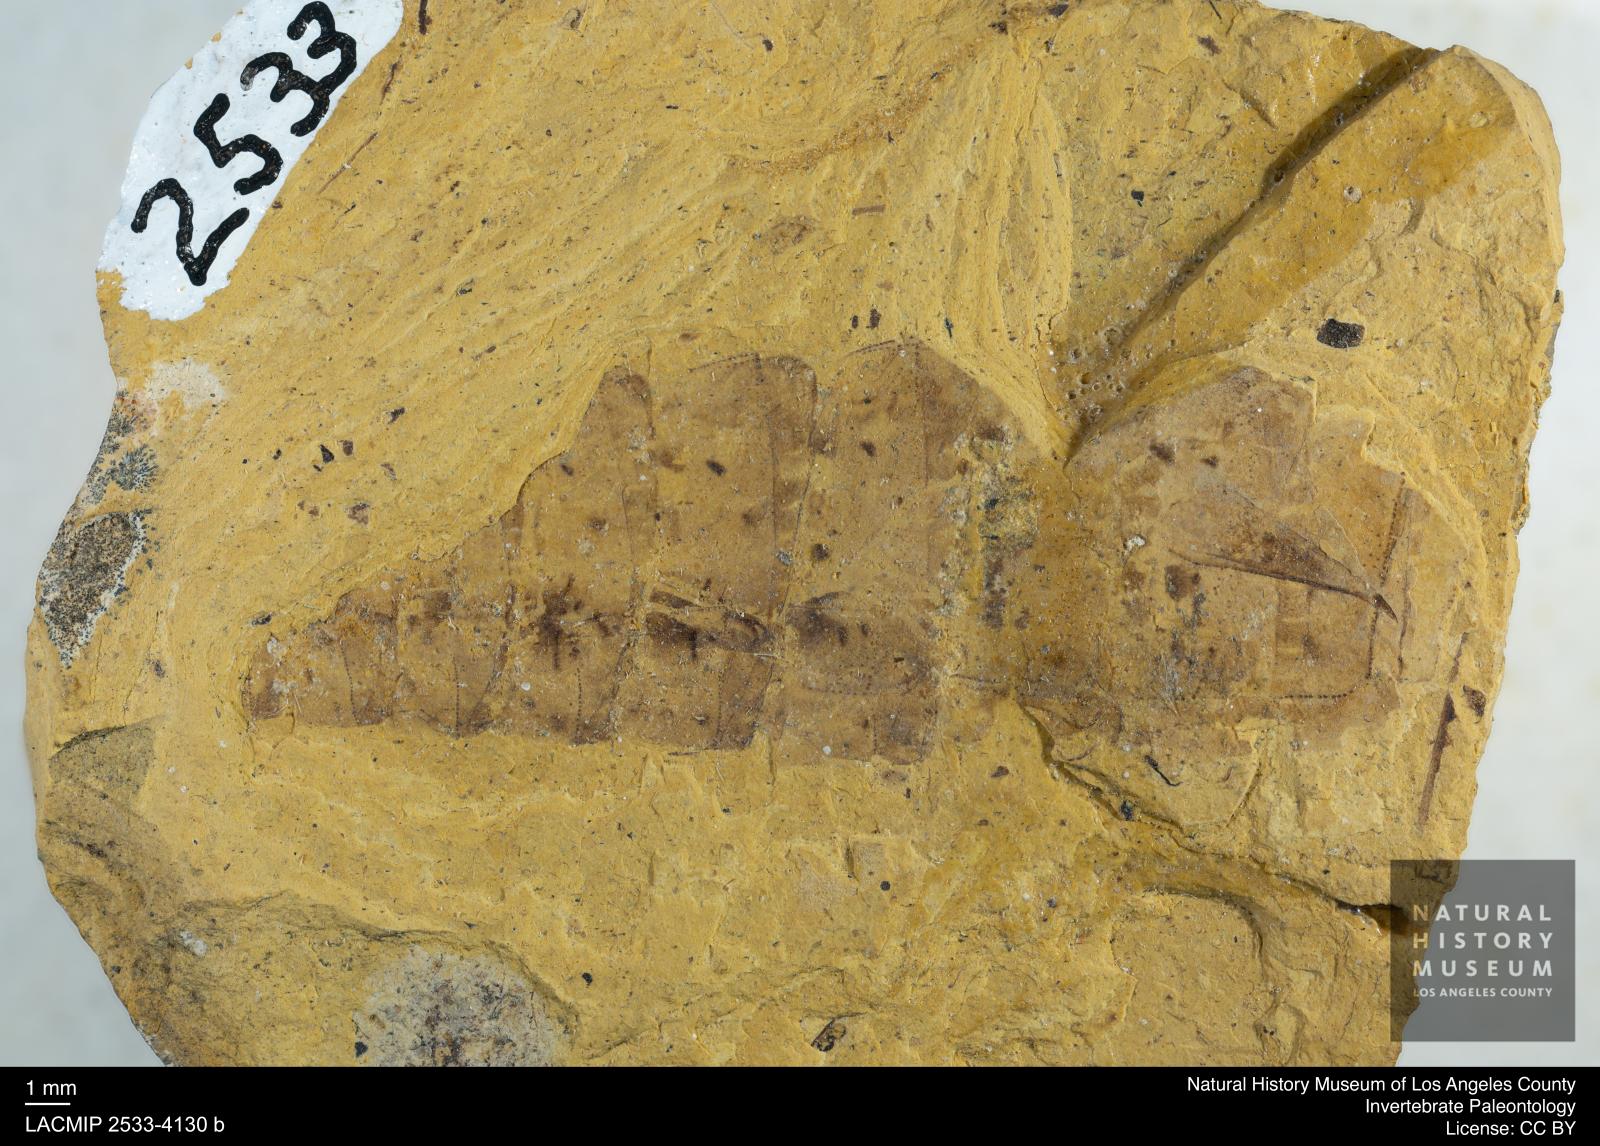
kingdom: Animalia
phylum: Arthropoda
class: Insecta
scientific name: Insecta
